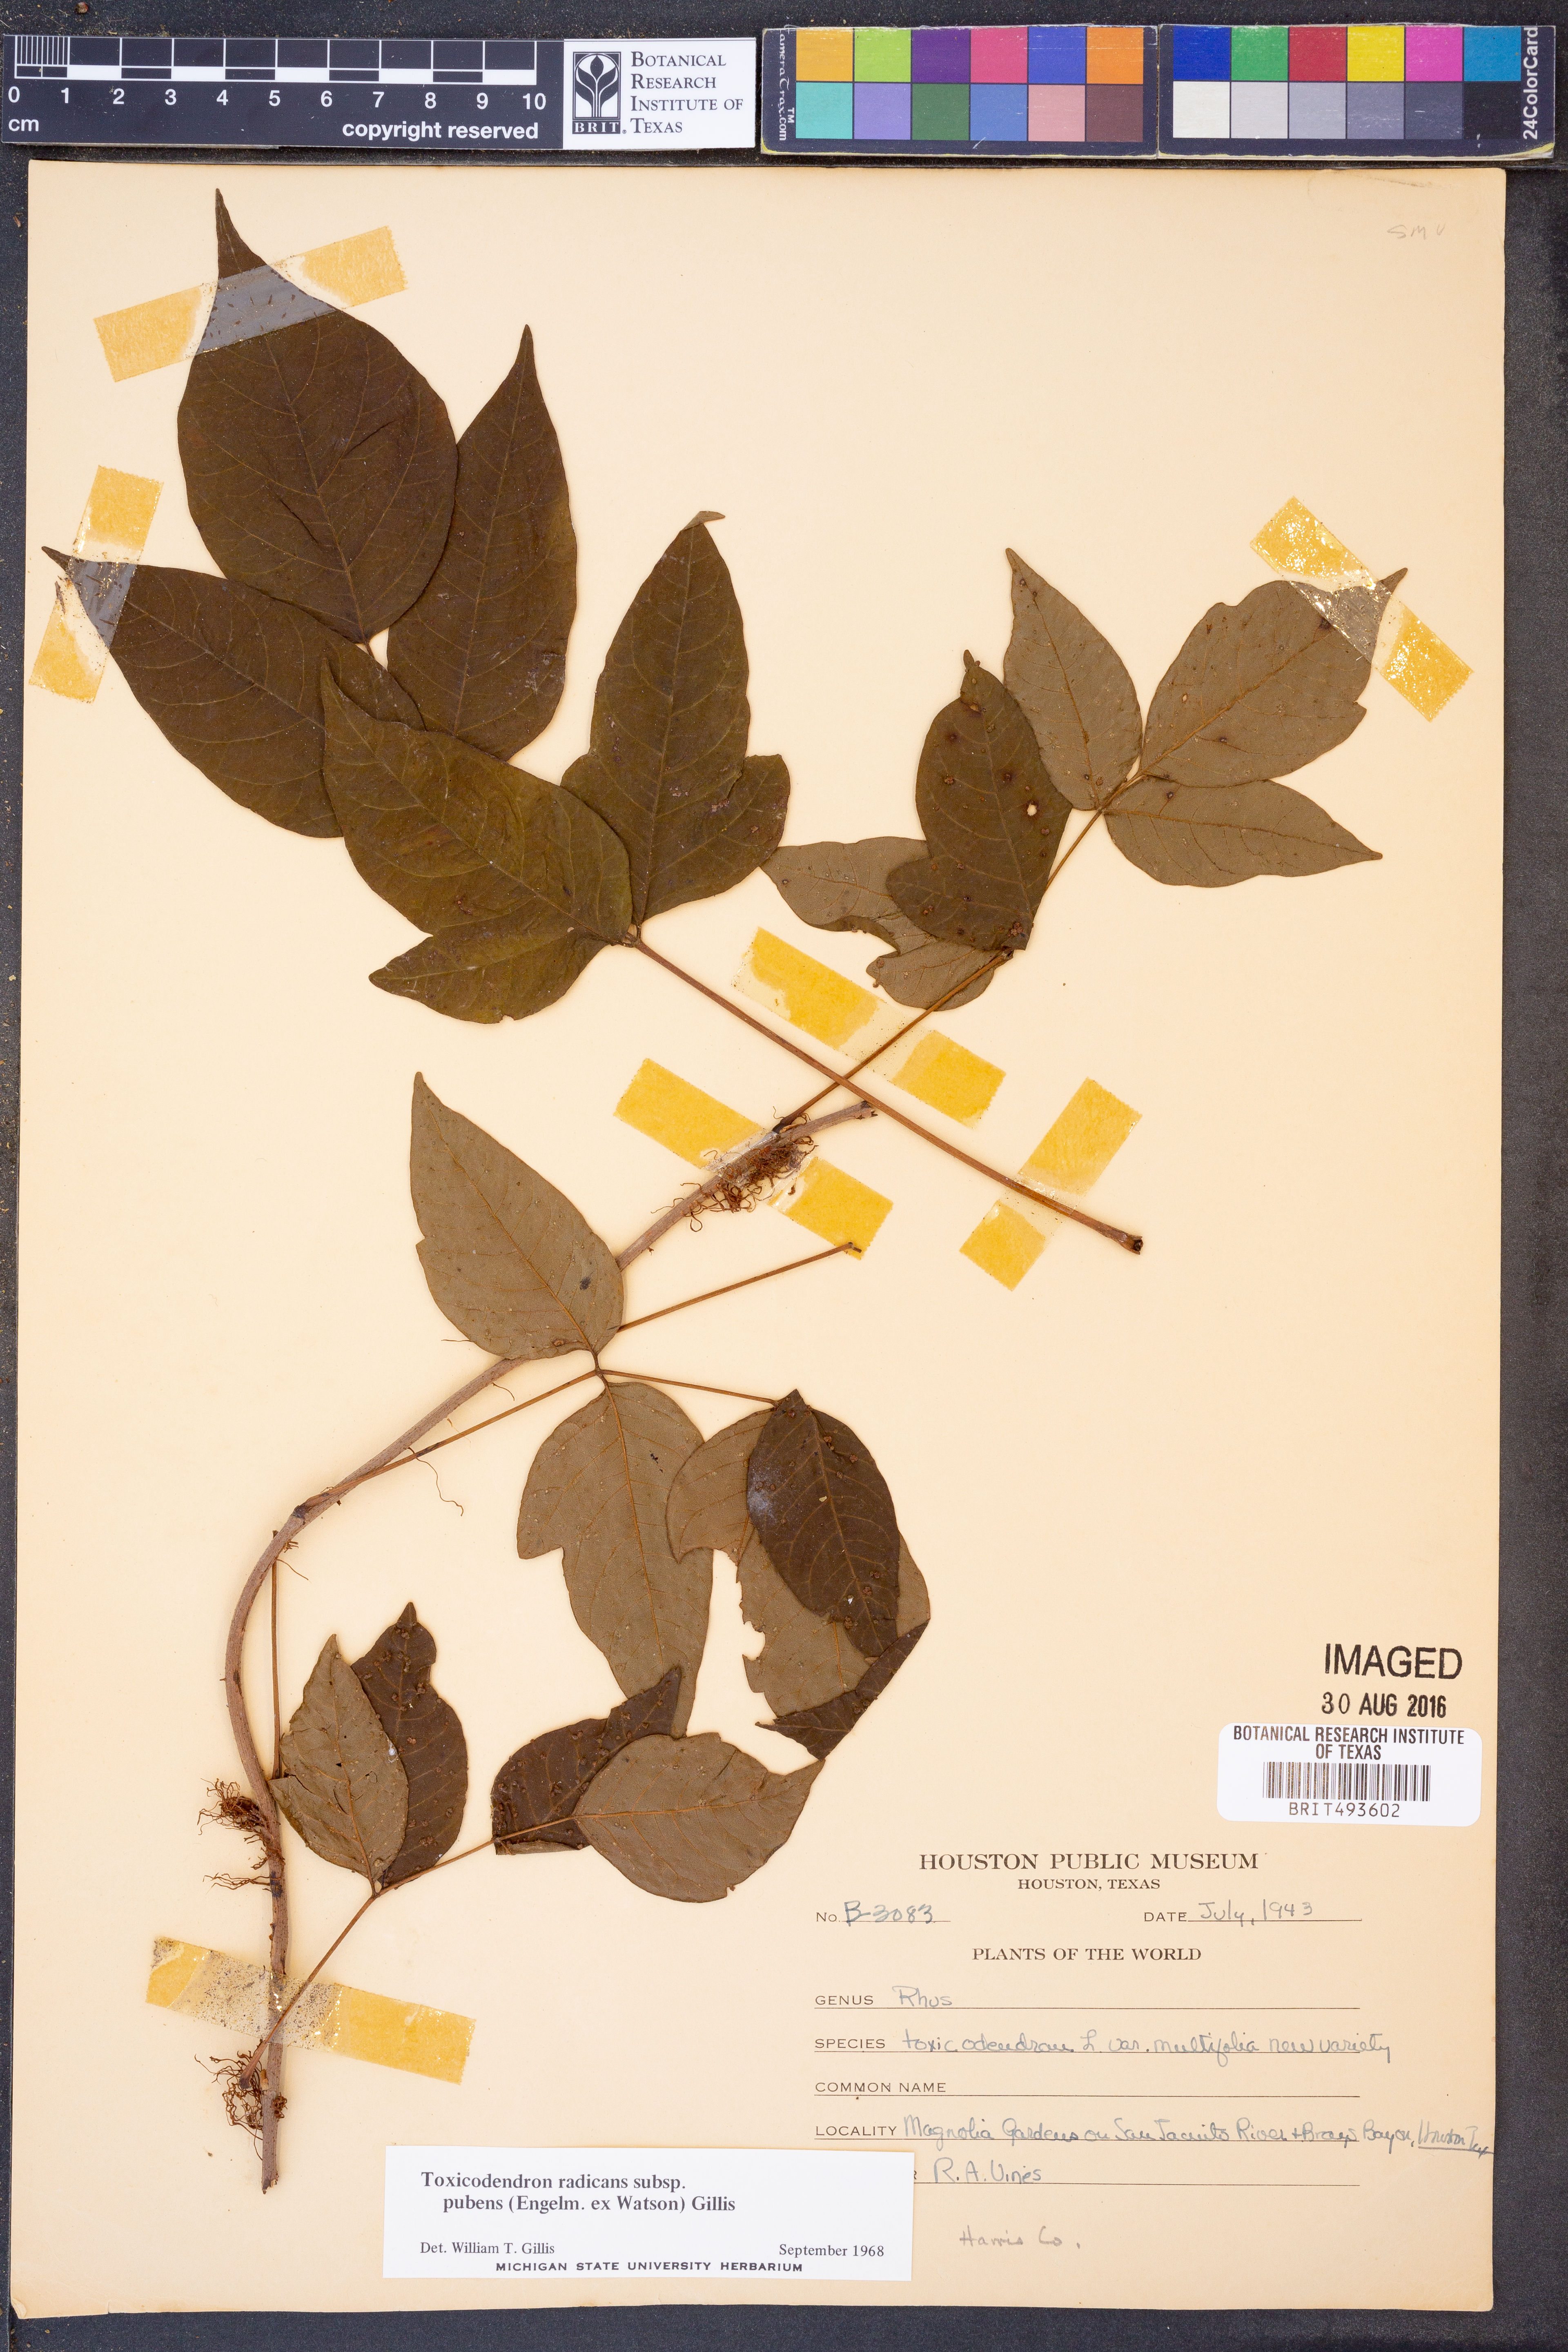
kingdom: Plantae
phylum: Tracheophyta
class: Magnoliopsida
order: Sapindales
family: Anacardiaceae
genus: Toxicodendron
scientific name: Toxicodendron radicans
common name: Poison ivy
